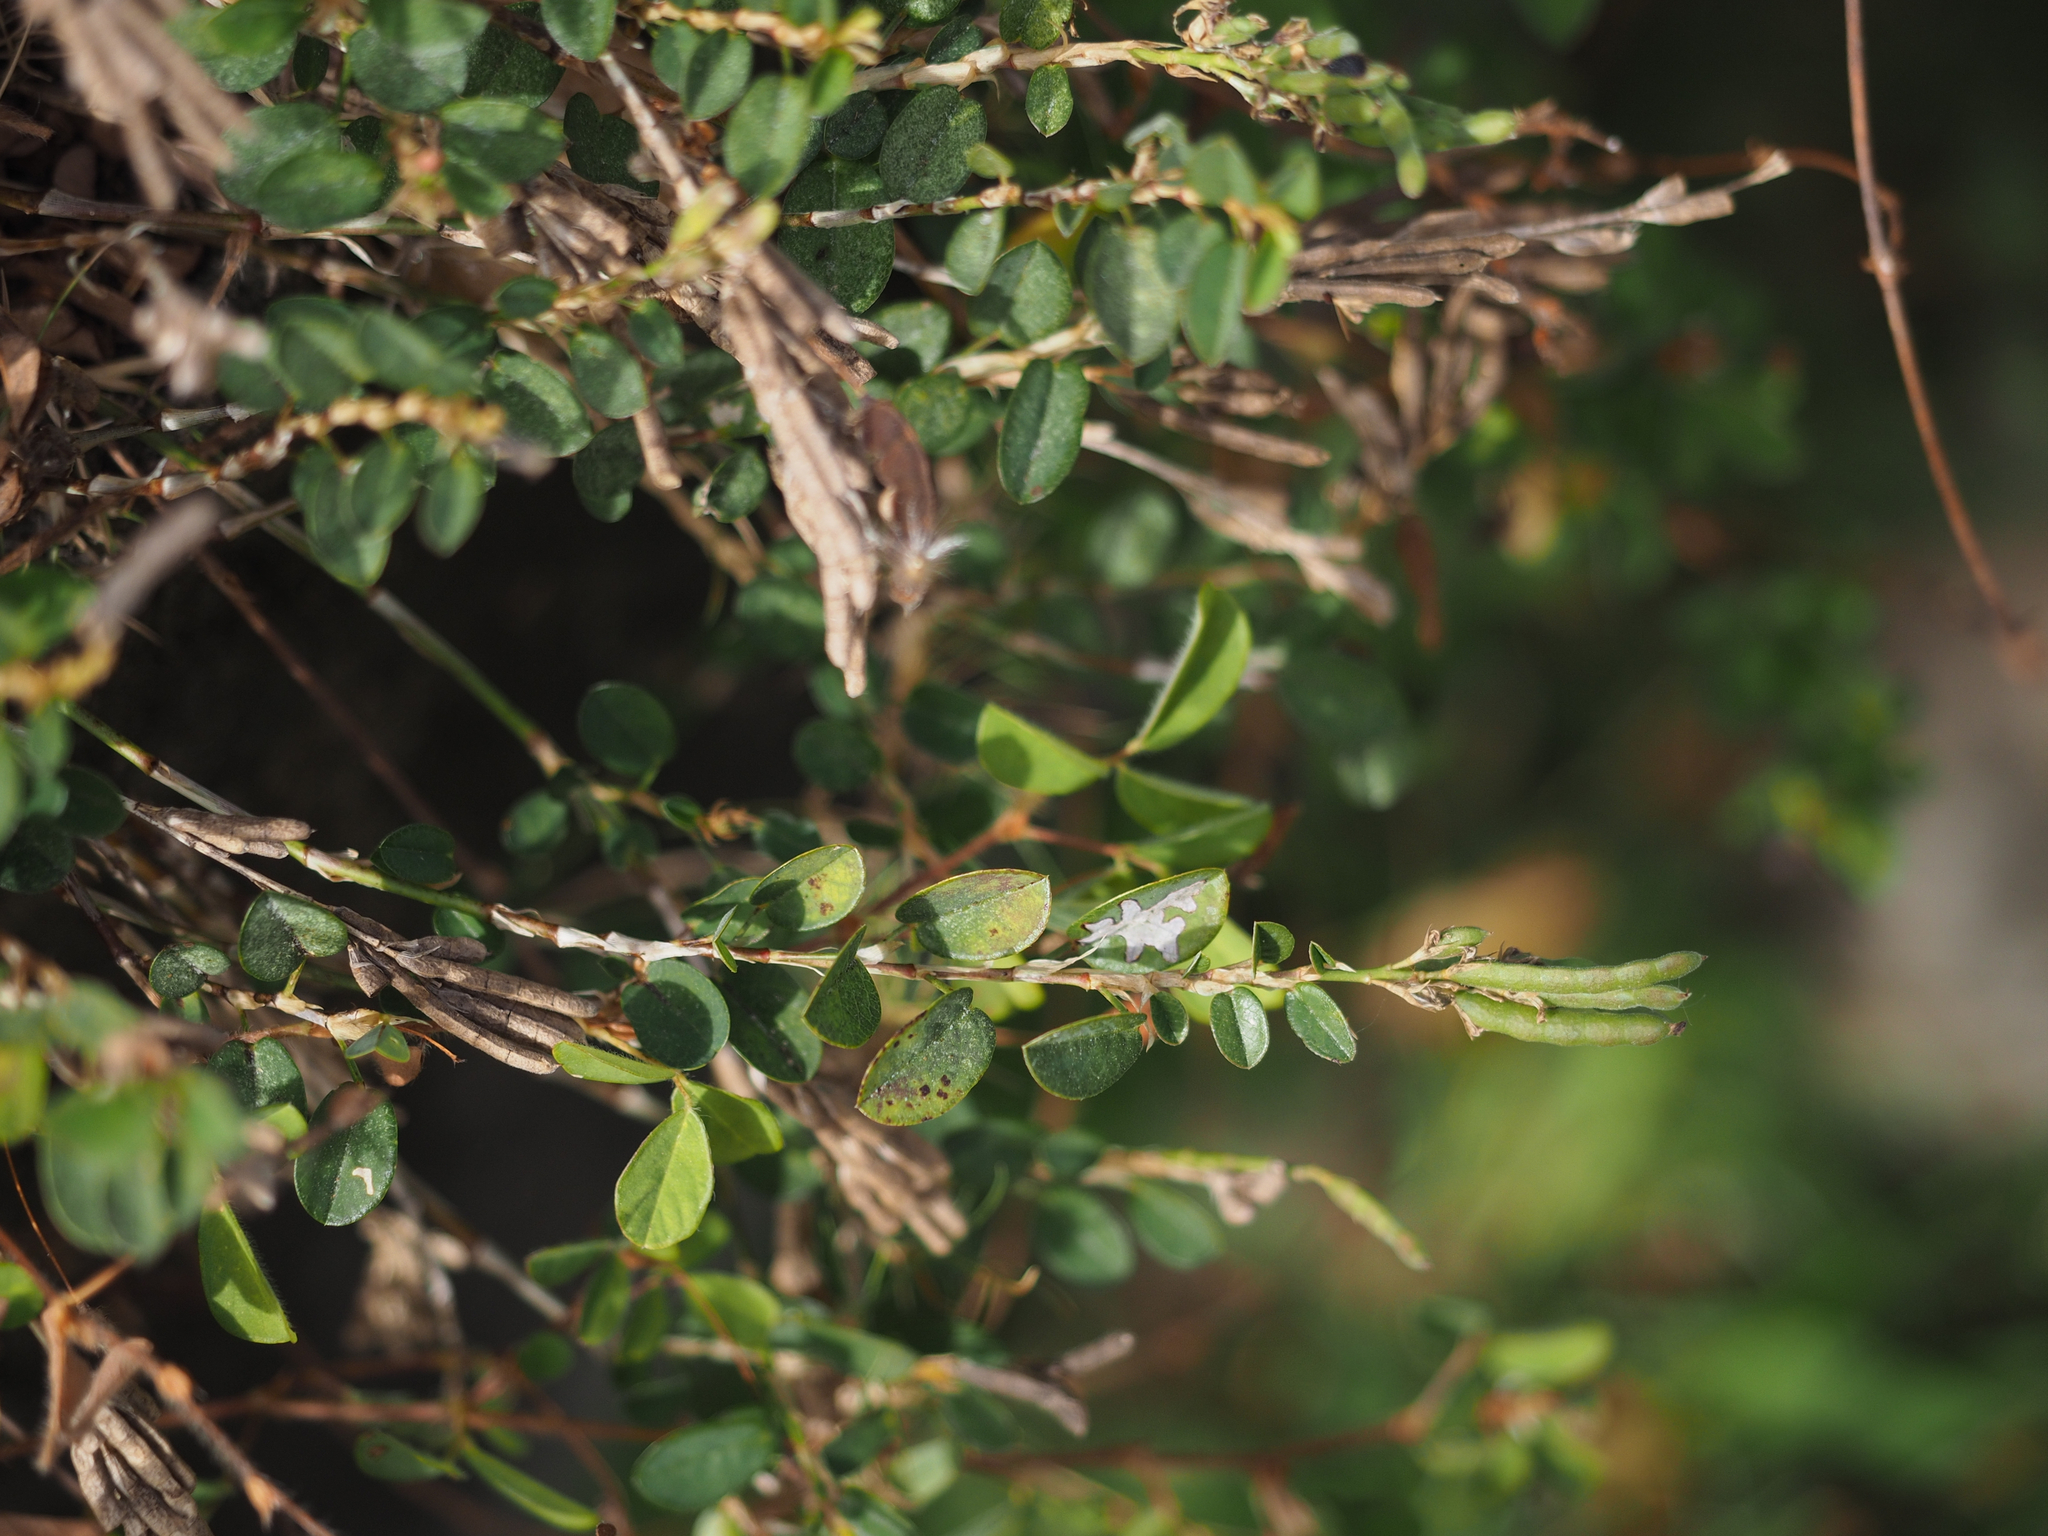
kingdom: Plantae
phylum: Tracheophyta
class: Magnoliopsida
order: Fabales
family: Fabaceae
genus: Alysicarpus
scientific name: Alysicarpus vaginalis
